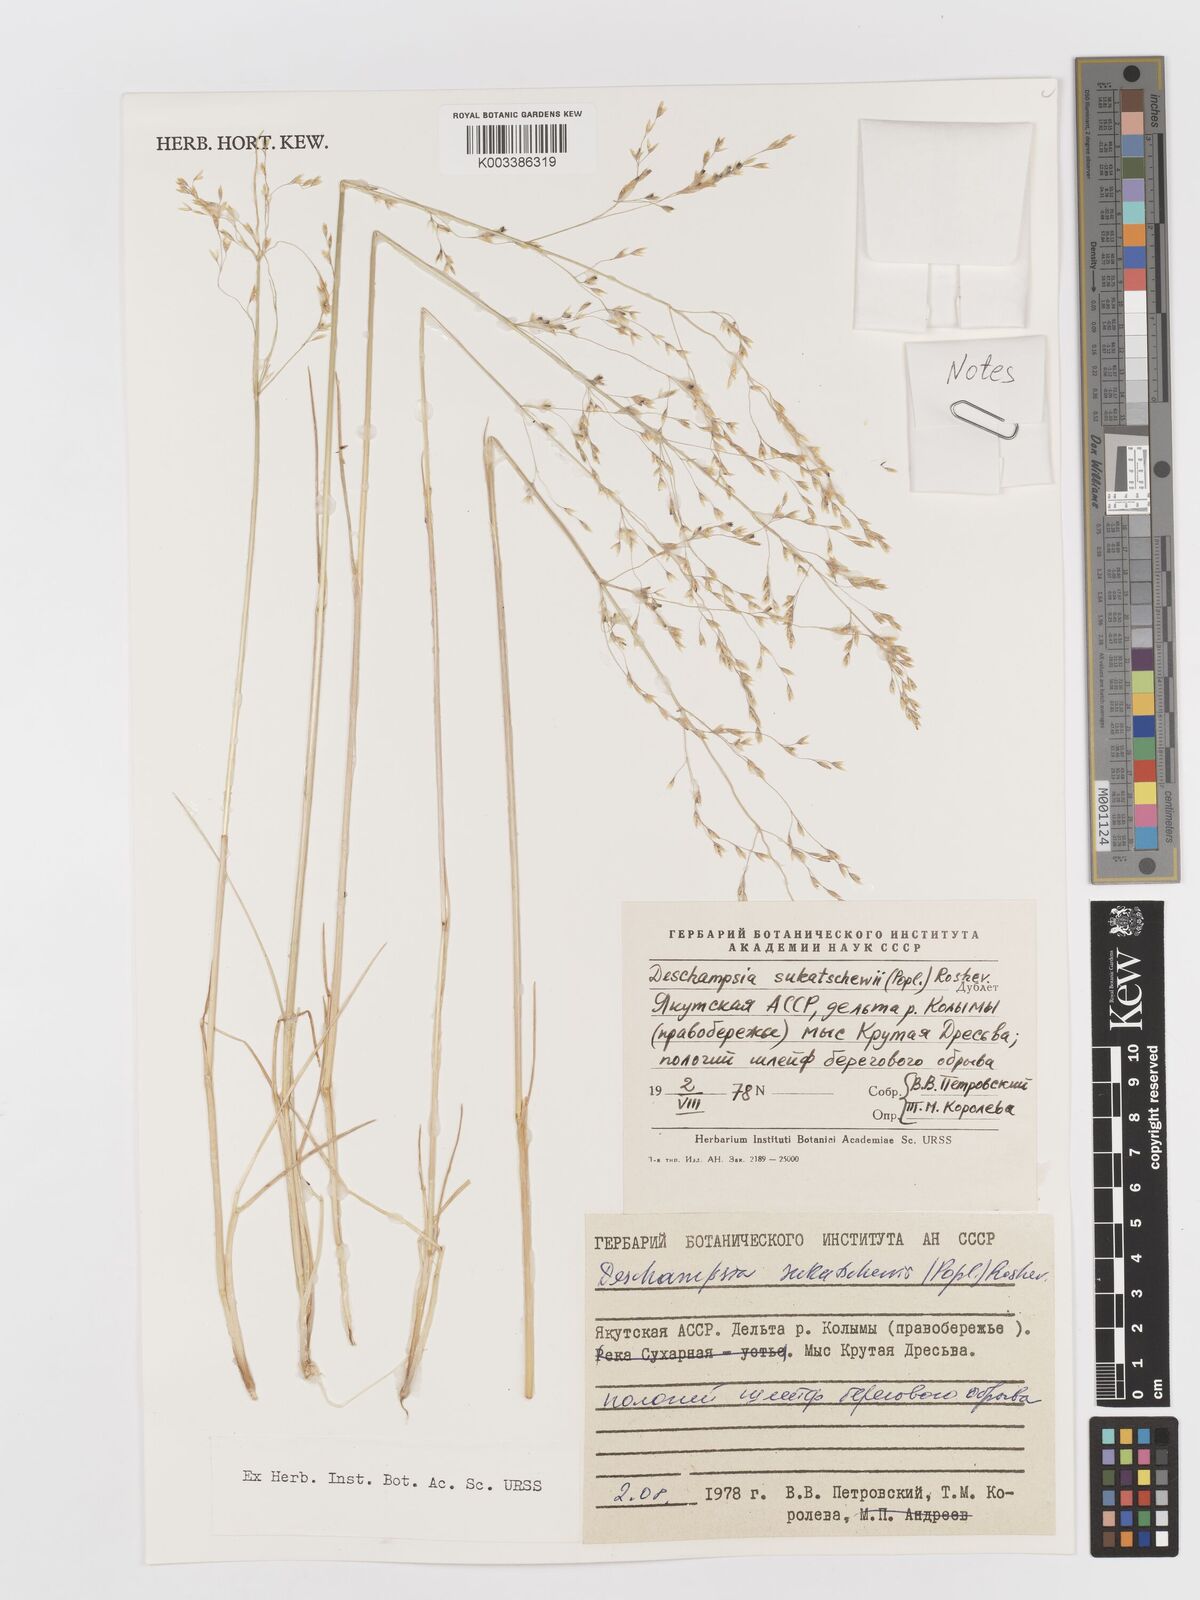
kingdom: Plantae
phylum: Tracheophyta
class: Liliopsida
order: Poales
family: Poaceae
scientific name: Poaceae
